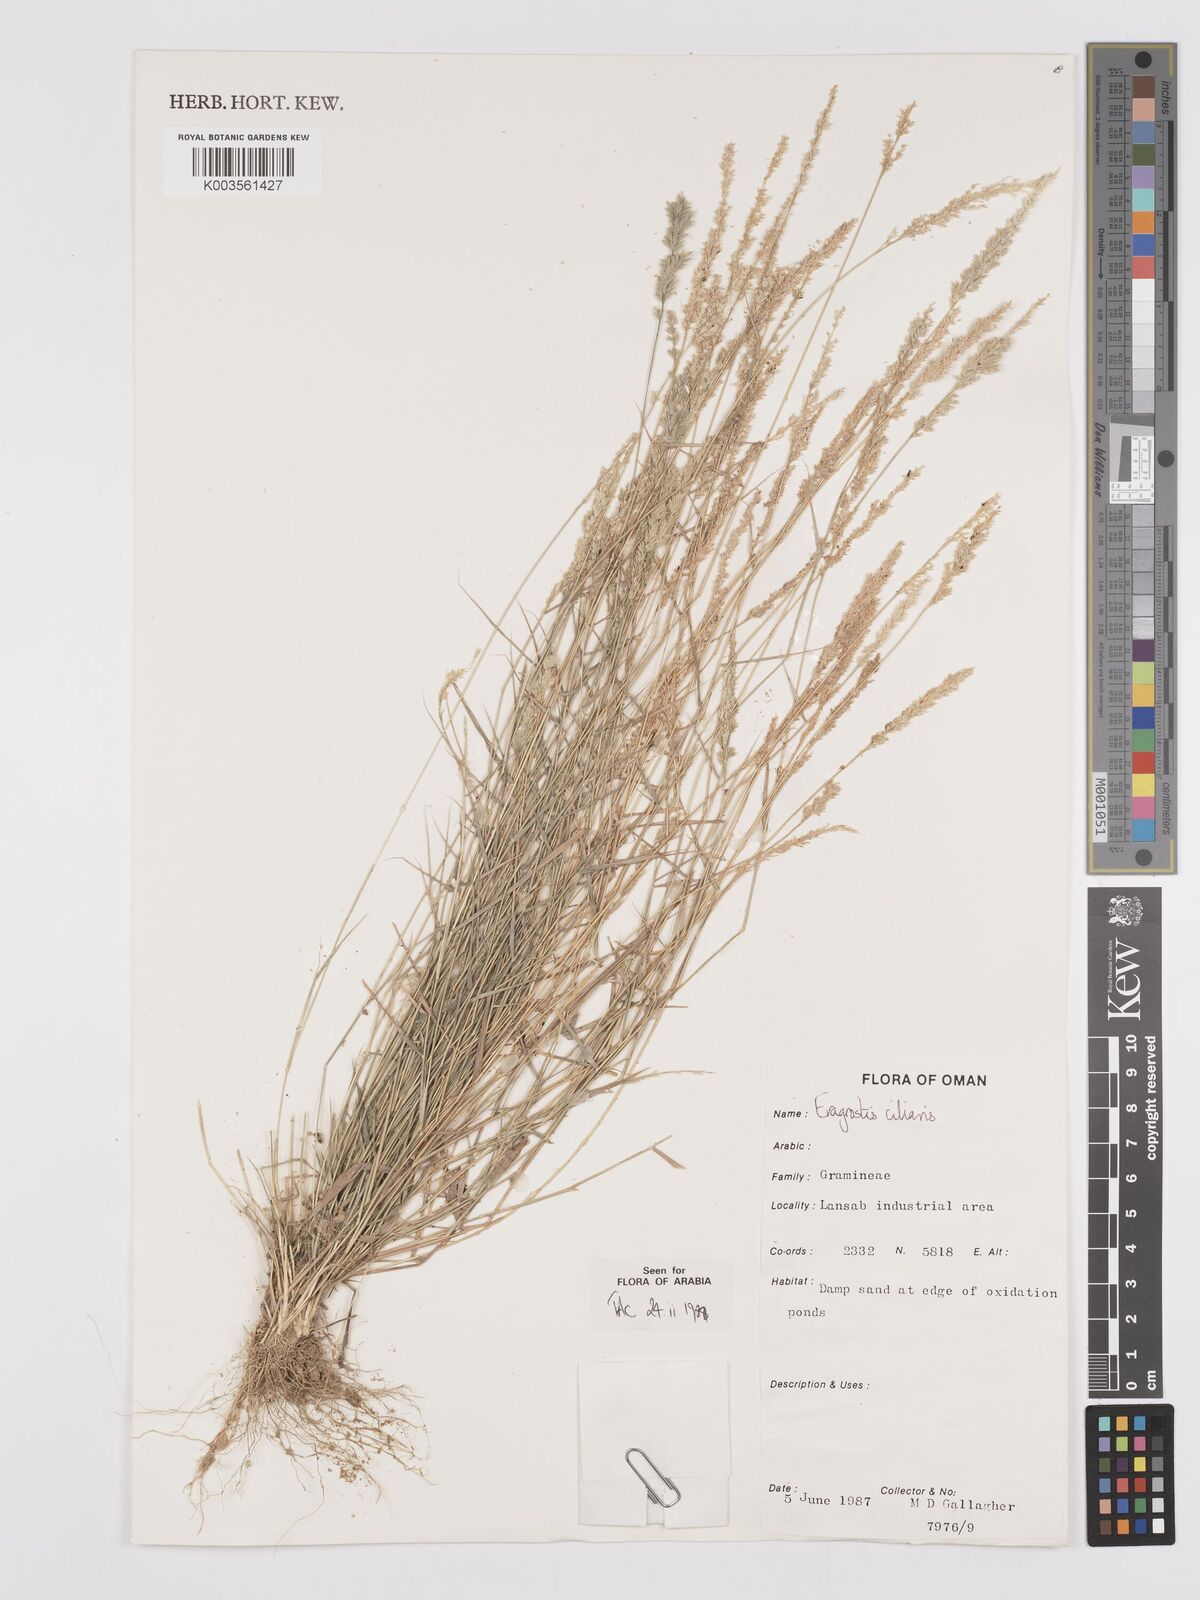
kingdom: Plantae
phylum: Tracheophyta
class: Liliopsida
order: Poales
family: Poaceae
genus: Eragrostis
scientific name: Eragrostis ciliaris
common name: Gophertail lovegrass
